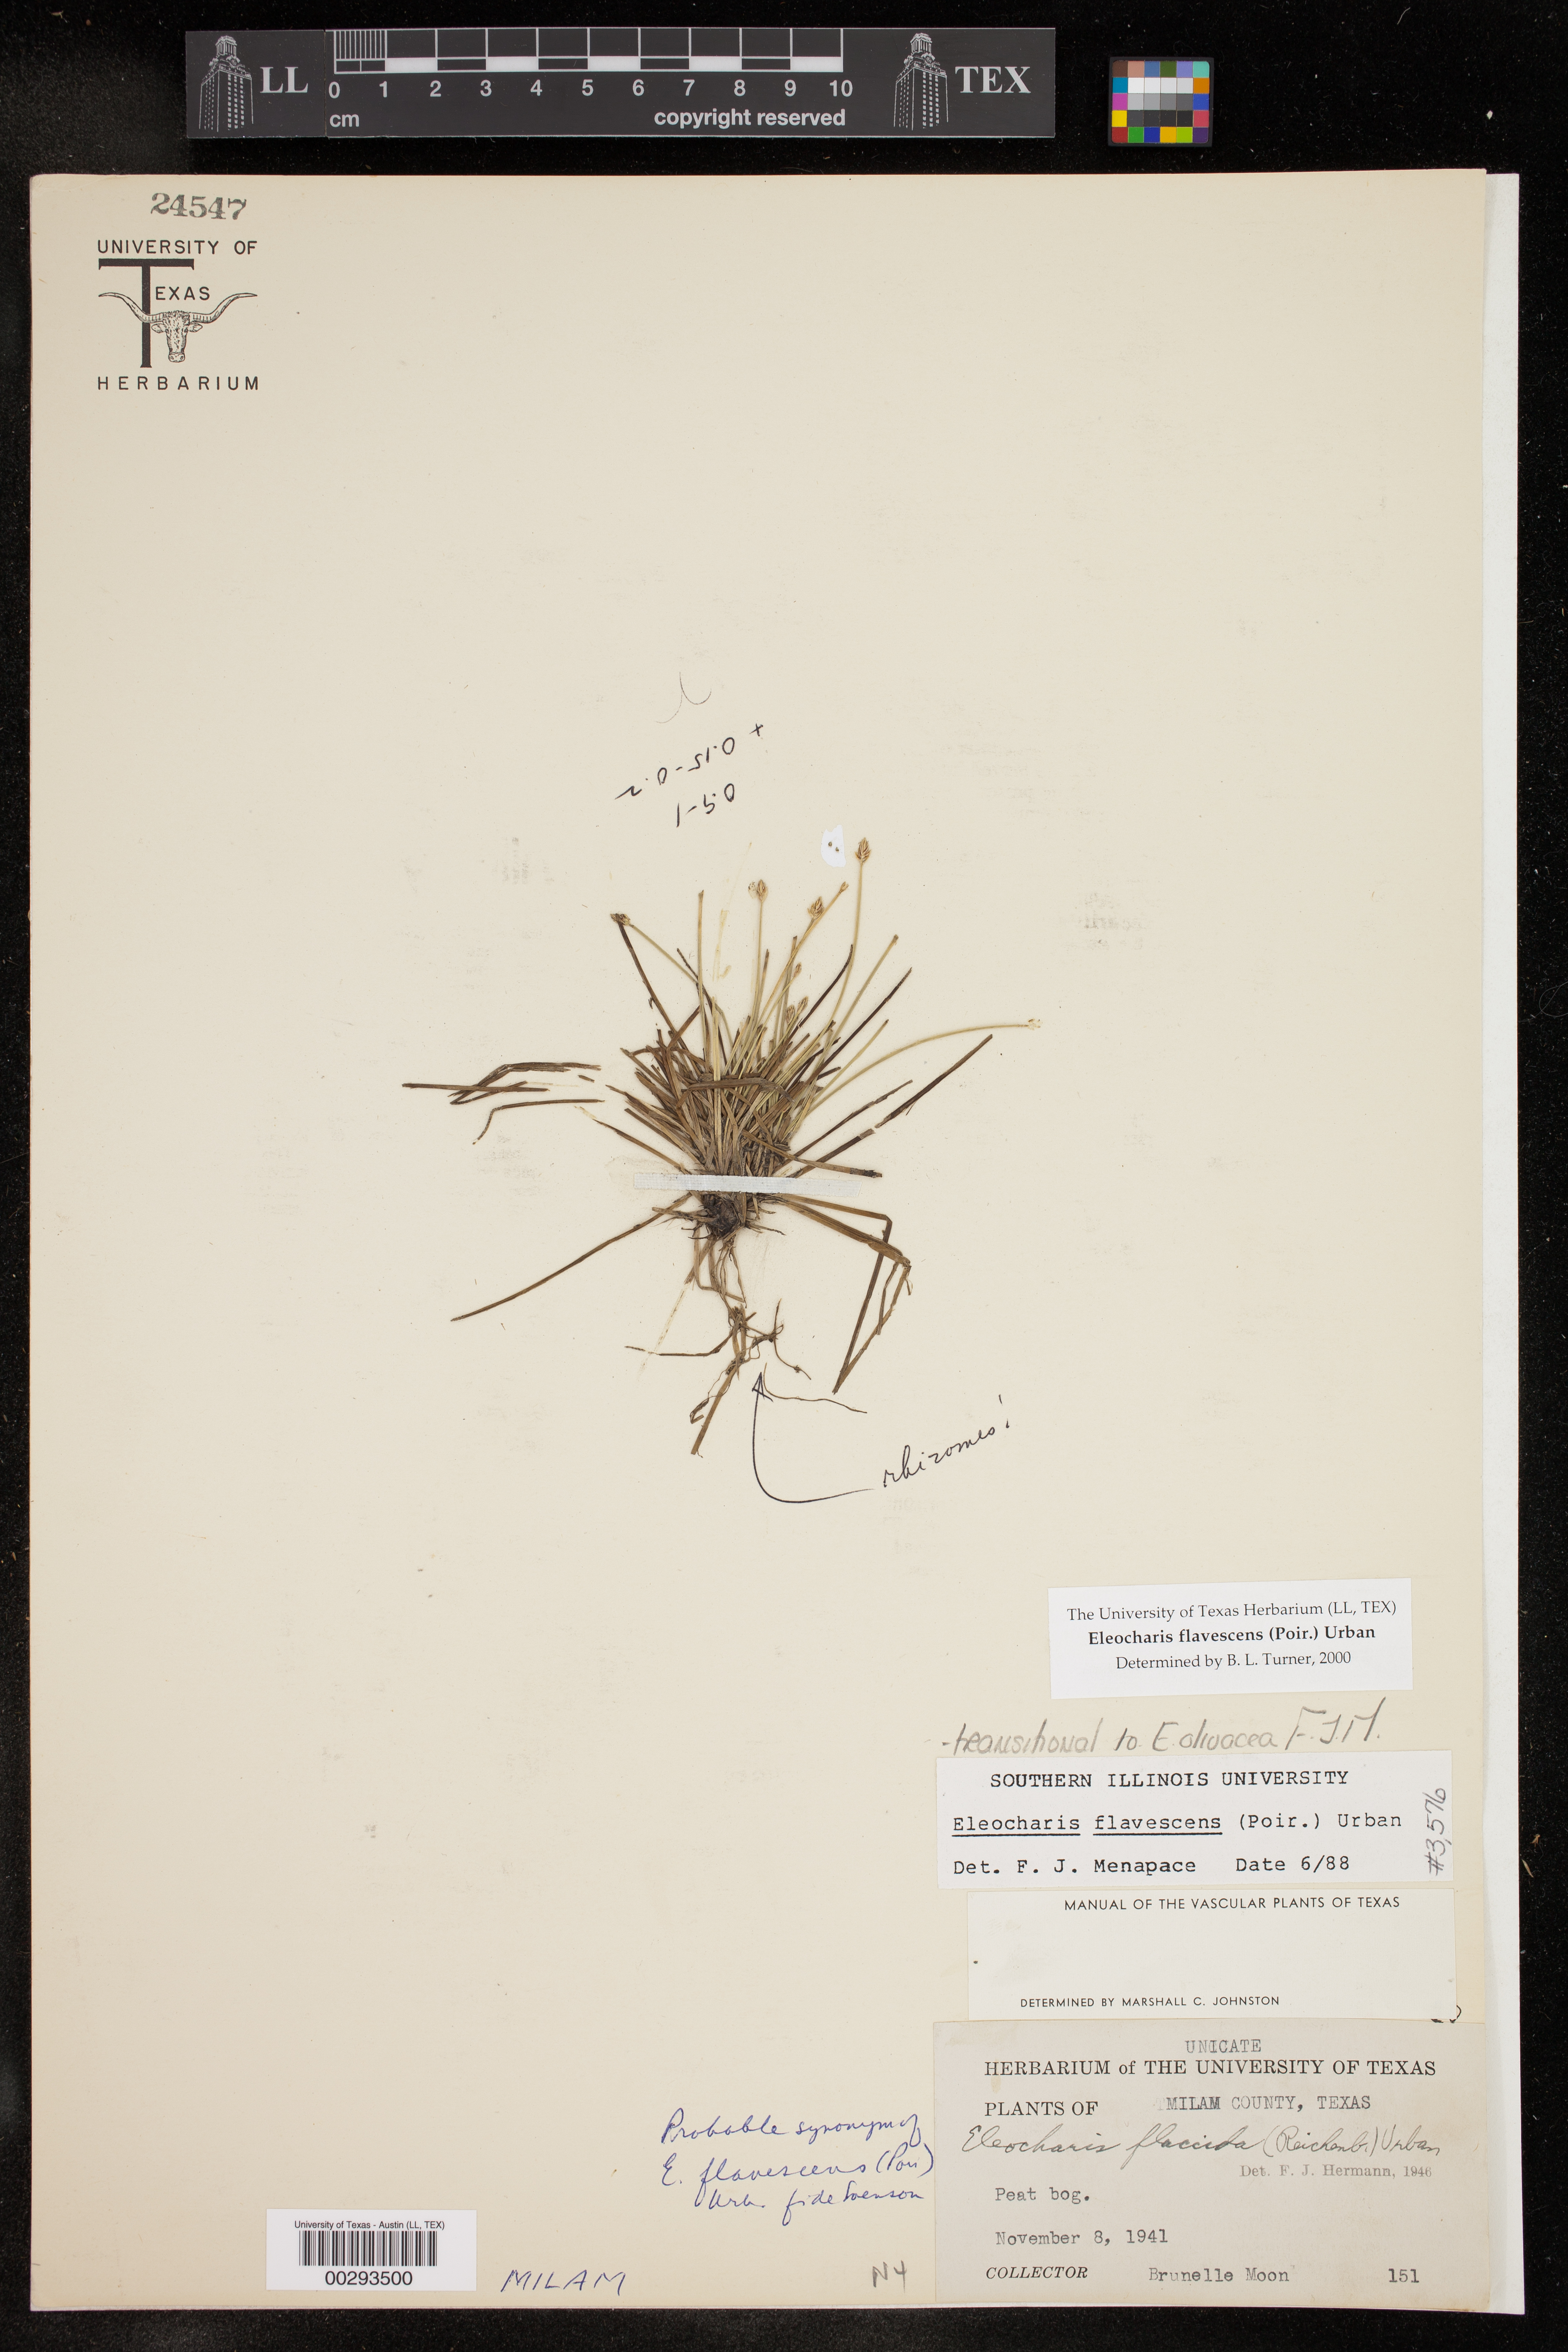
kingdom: Plantae
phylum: Tracheophyta
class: Liliopsida
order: Poales
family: Cyperaceae
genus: Eleocharis
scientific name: Eleocharis flavescens
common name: Yellow spikerush
